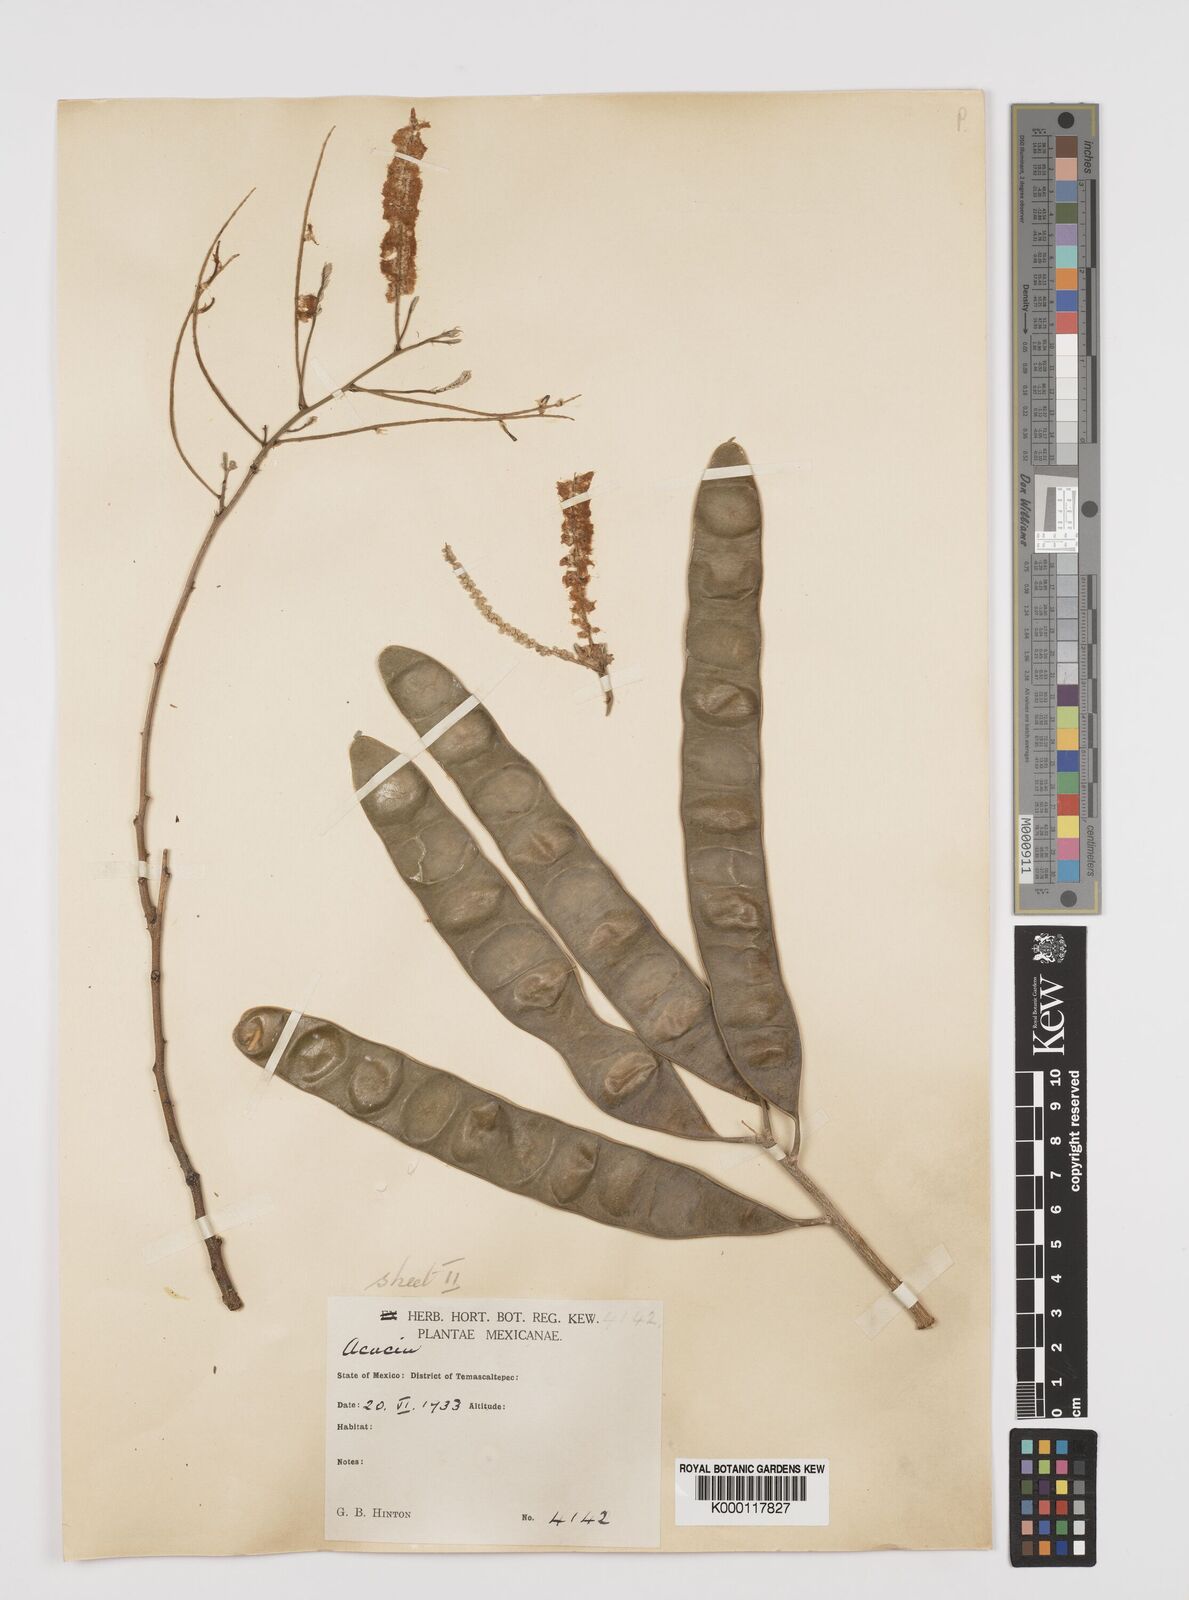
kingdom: Plantae
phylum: Tracheophyta
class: Magnoliopsida
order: Fabales
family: Fabaceae
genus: Mariosousa
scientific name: Mariosousa acatlensis
